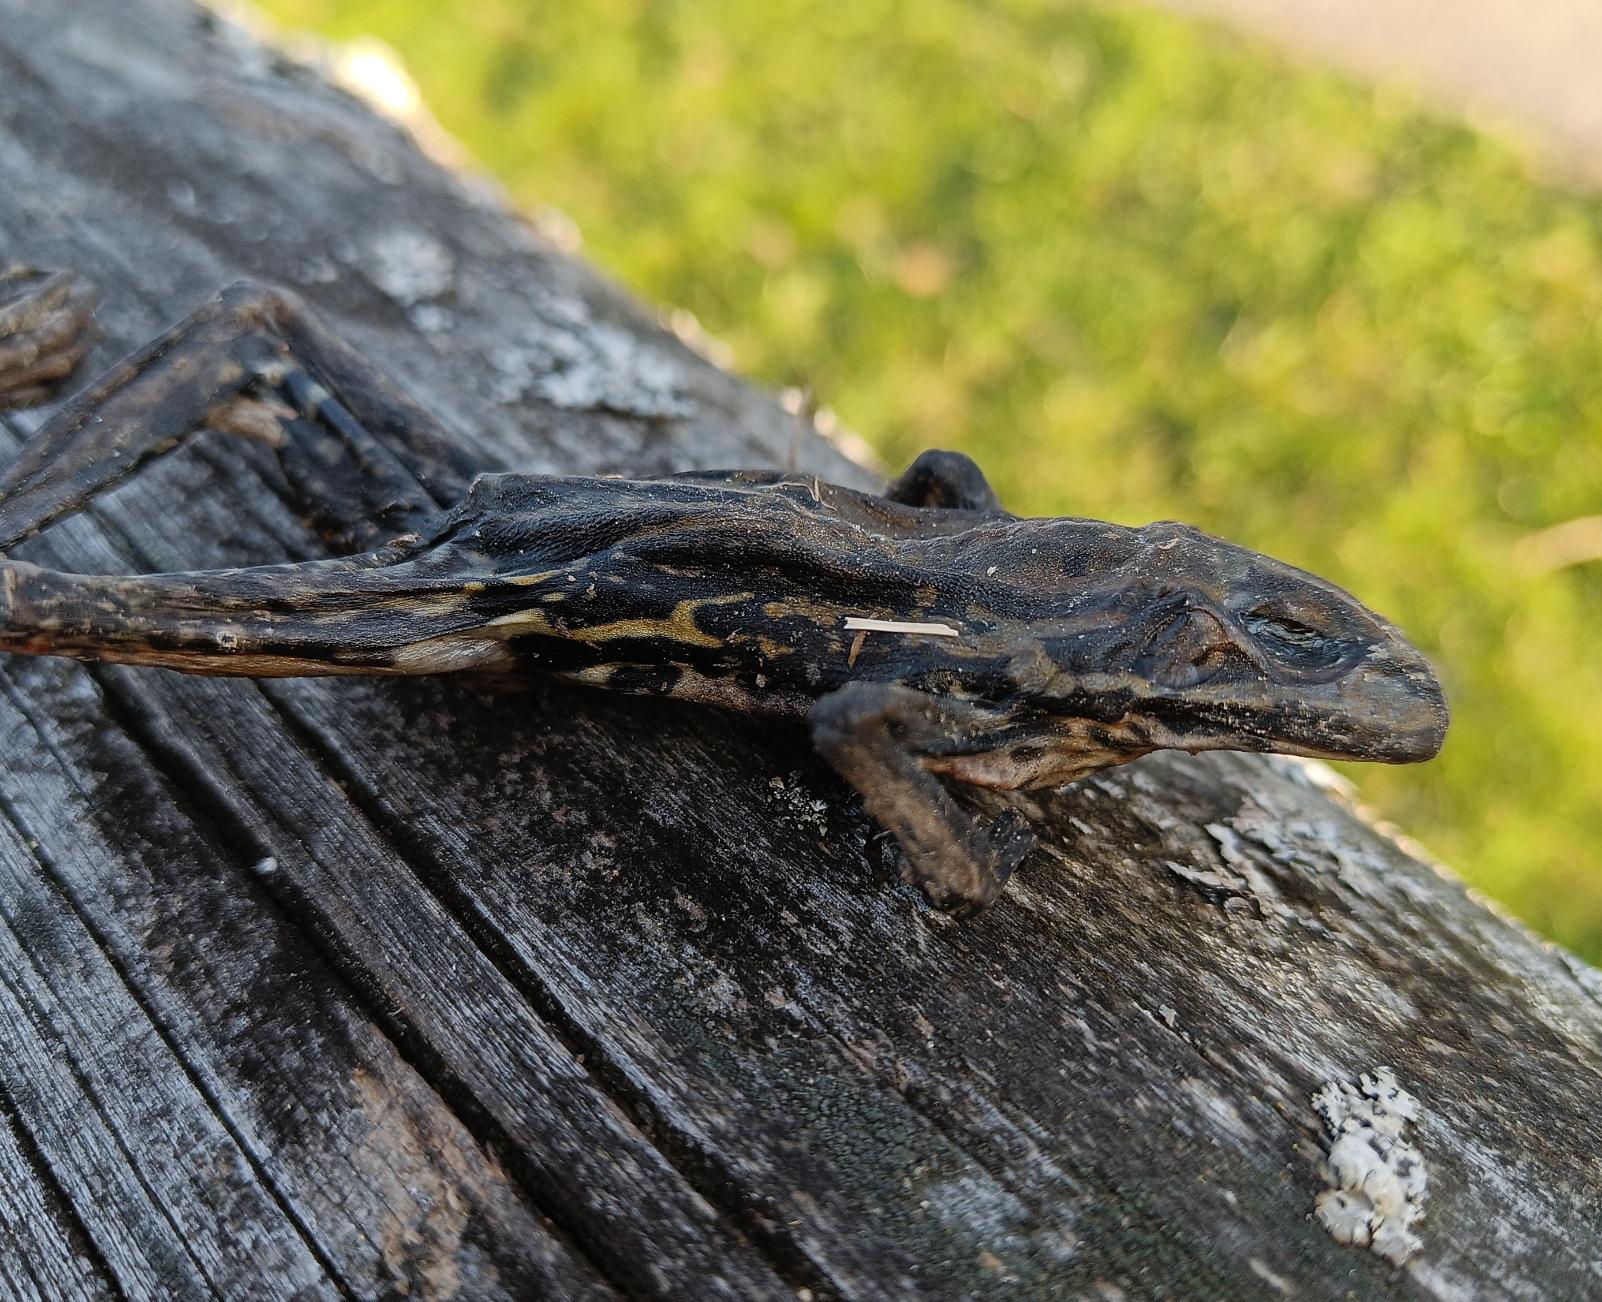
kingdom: Animalia
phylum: Chordata
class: Amphibia
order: Anura
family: Ranidae
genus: Pelophylax
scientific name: Pelophylax lessonae
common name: Grøn frø
